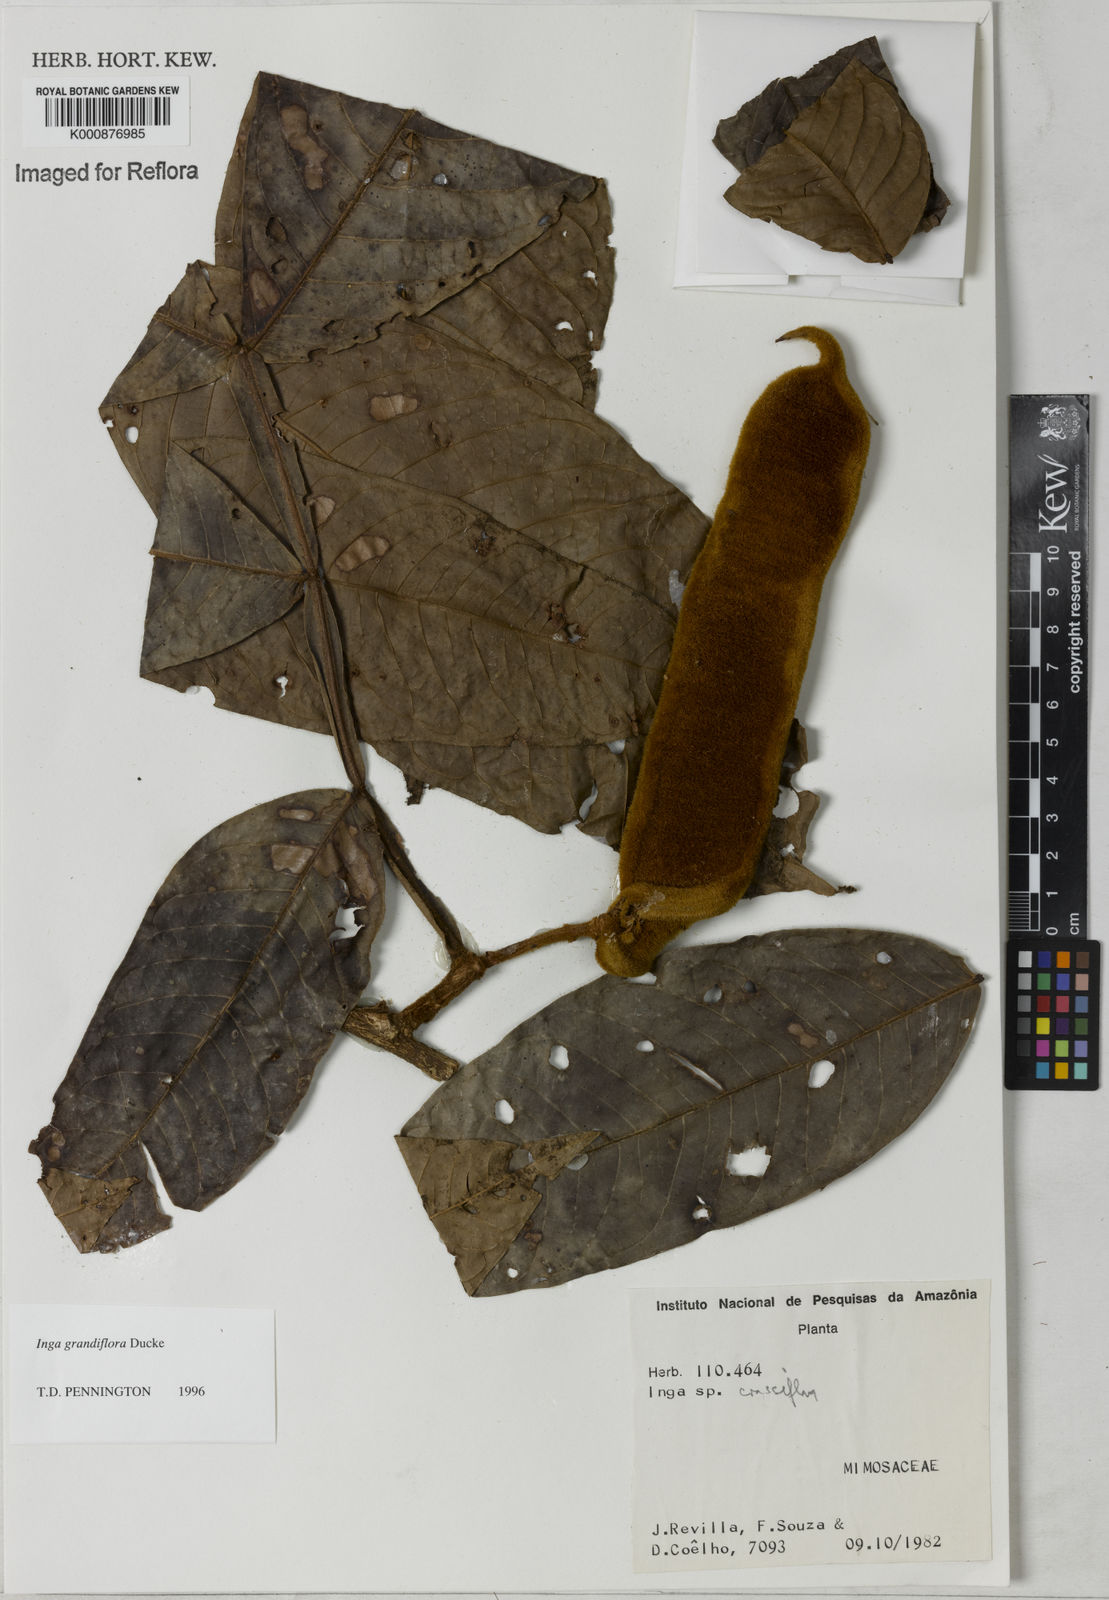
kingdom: Plantae
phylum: Tracheophyta
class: Magnoliopsida
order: Fabales
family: Fabaceae
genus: Inga
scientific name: Inga crassiflora
